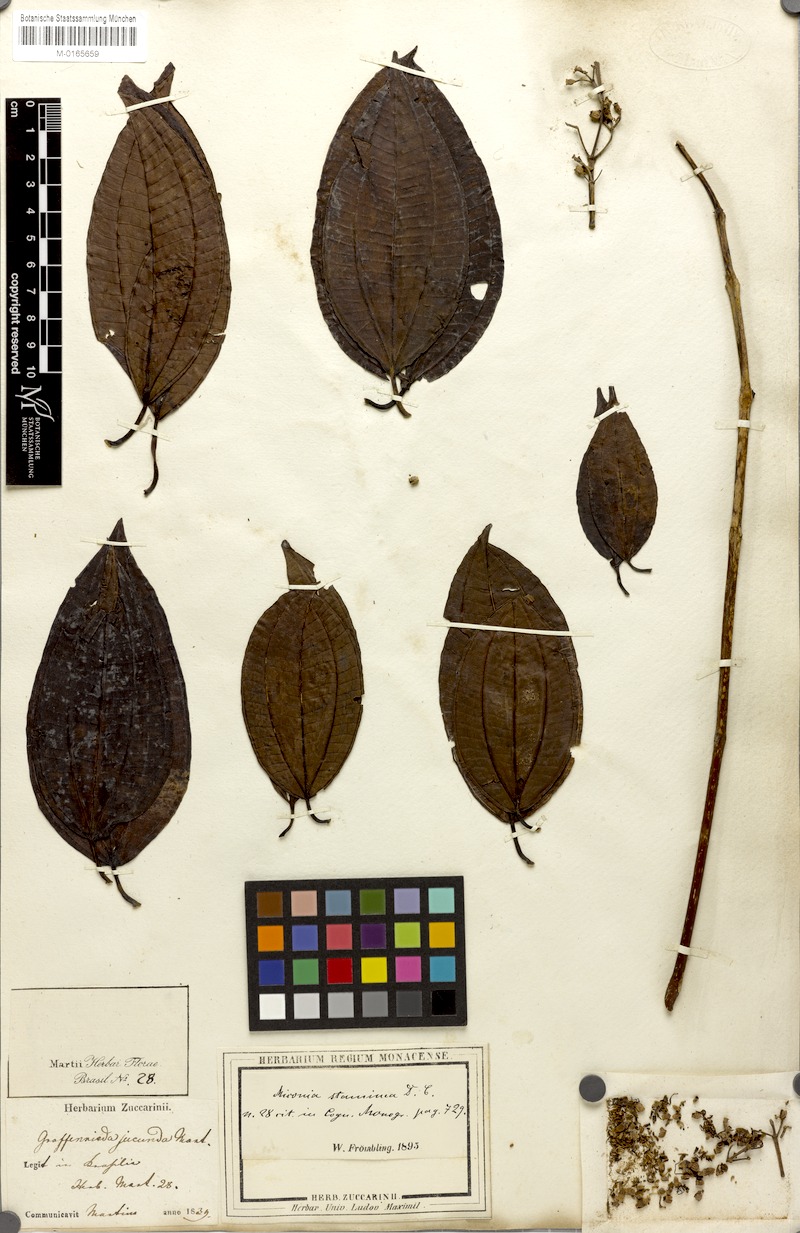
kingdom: Plantae
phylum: Tracheophyta
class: Magnoliopsida
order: Myrtales
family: Melastomataceae
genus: Miconia
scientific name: Miconia staminea
